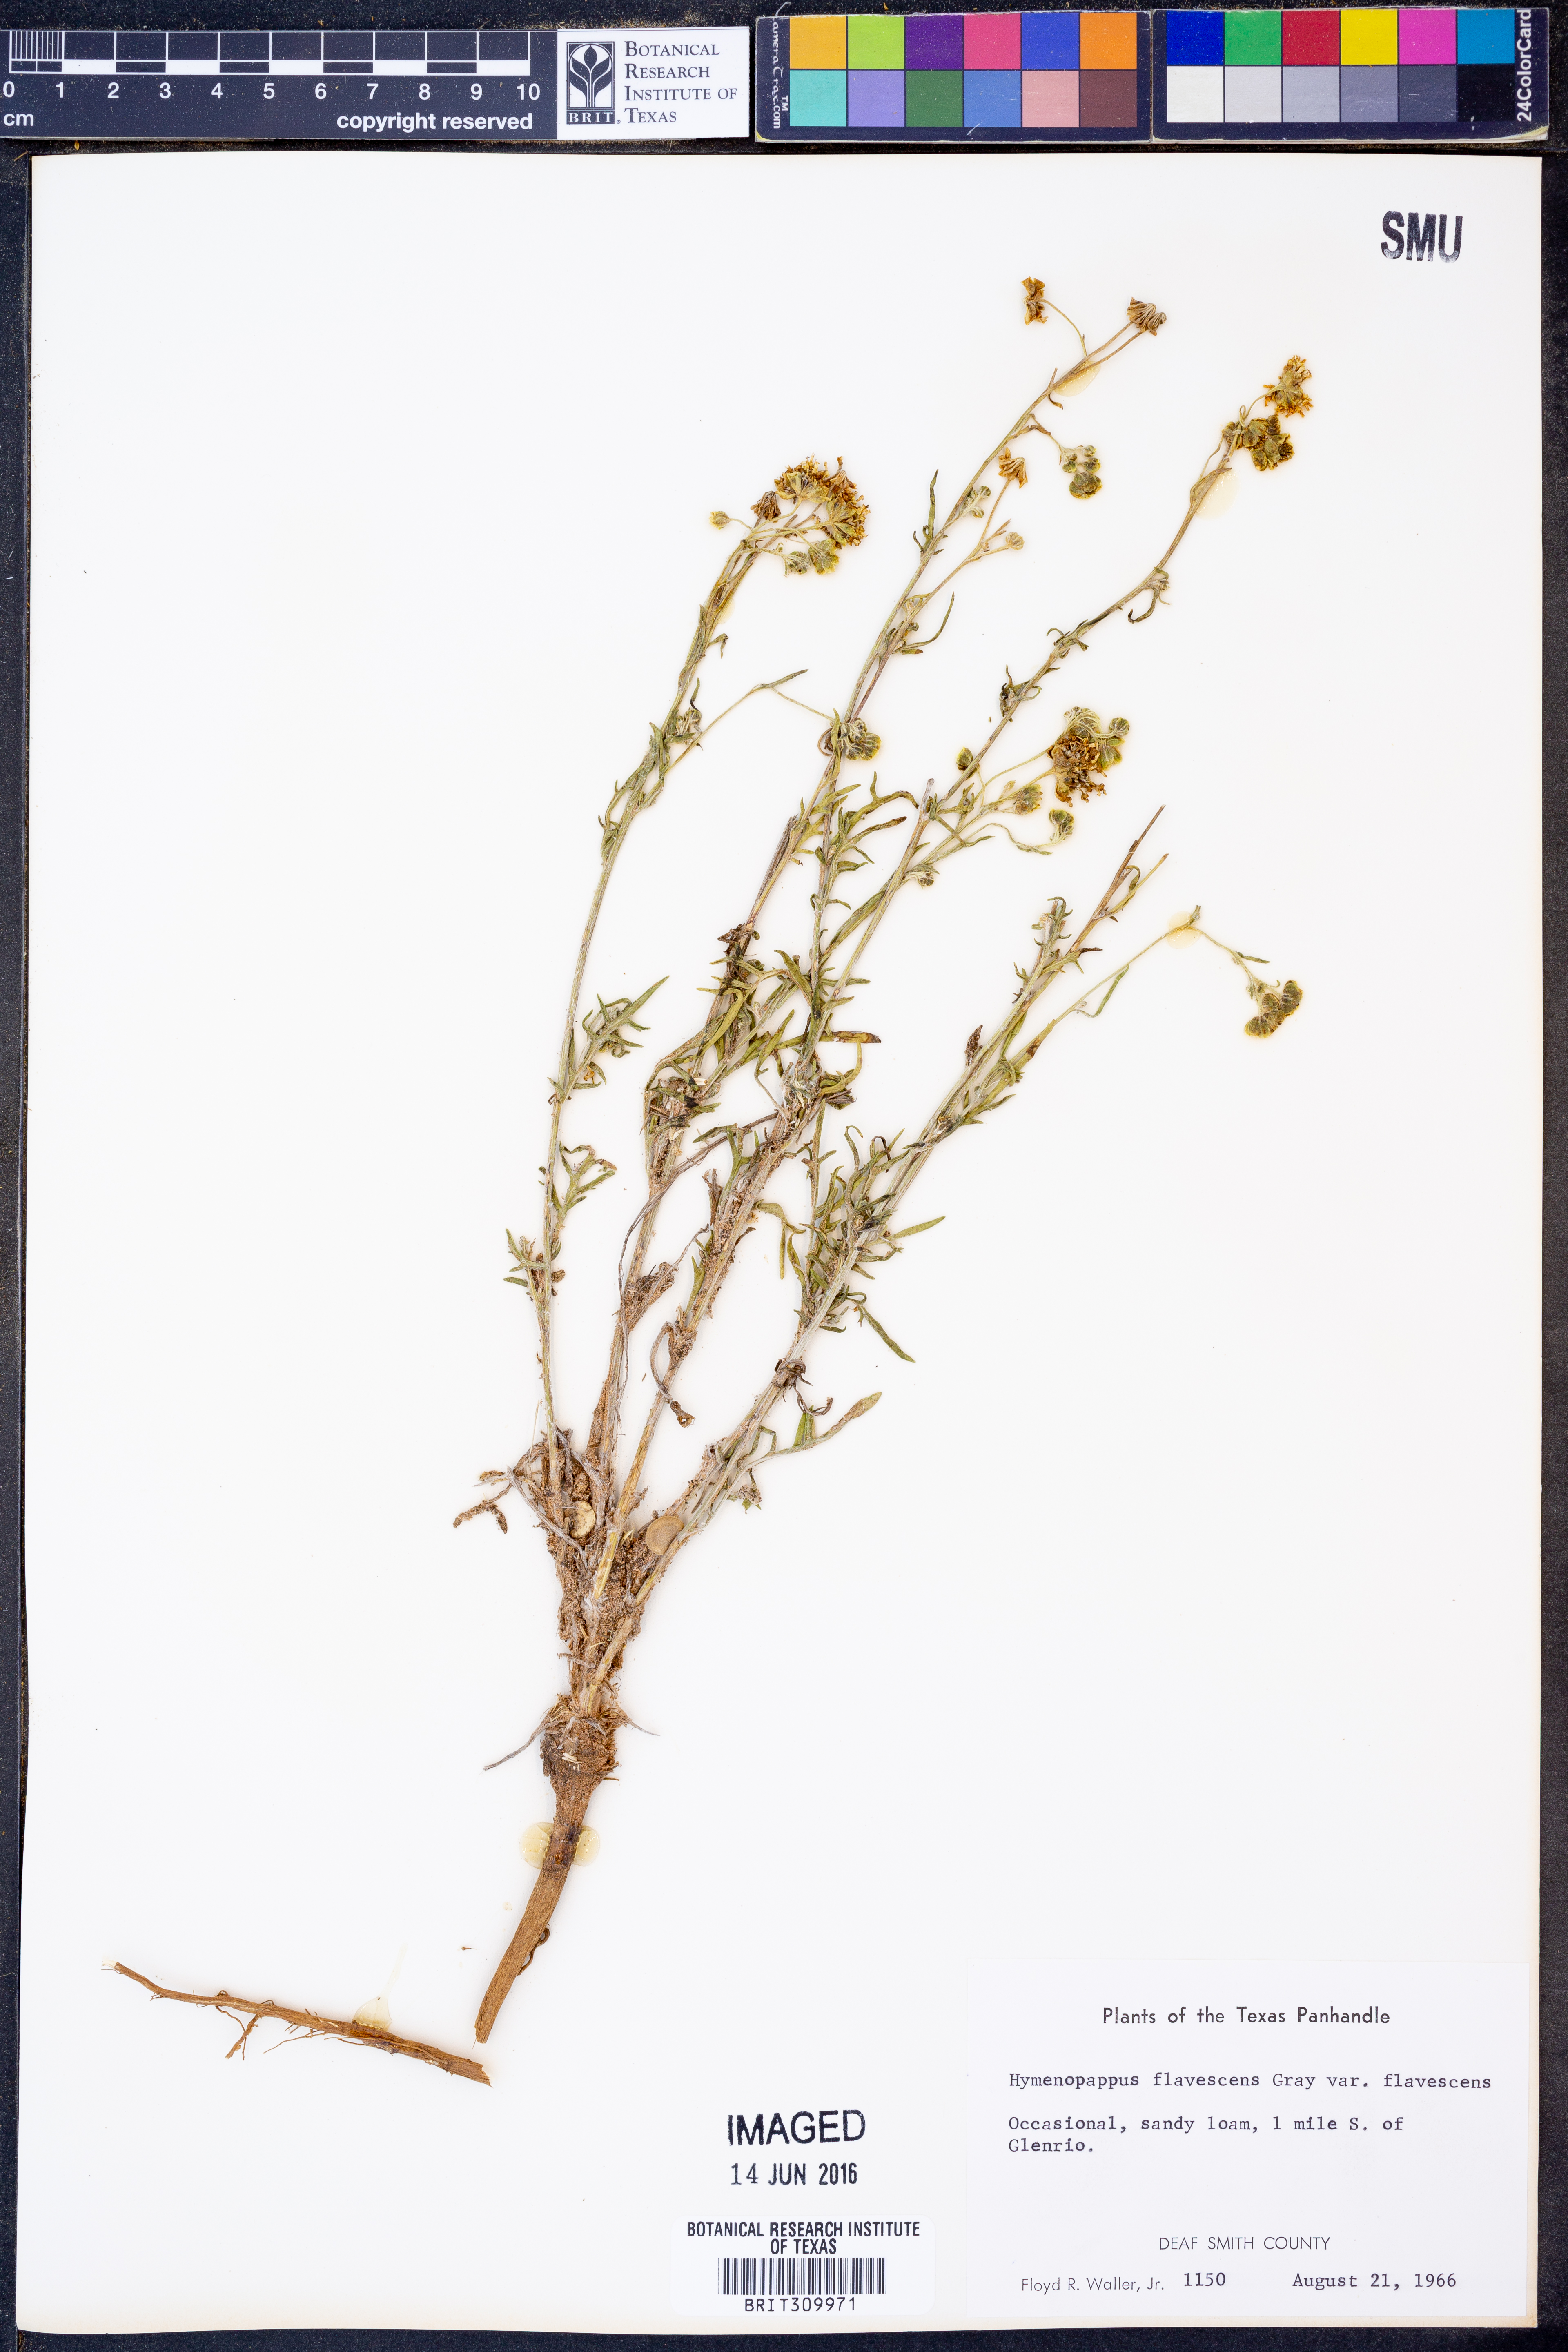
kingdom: Plantae
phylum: Tracheophyta
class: Magnoliopsida
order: Asterales
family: Asteraceae
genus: Hymenopappus
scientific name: Hymenopappus flavescens
